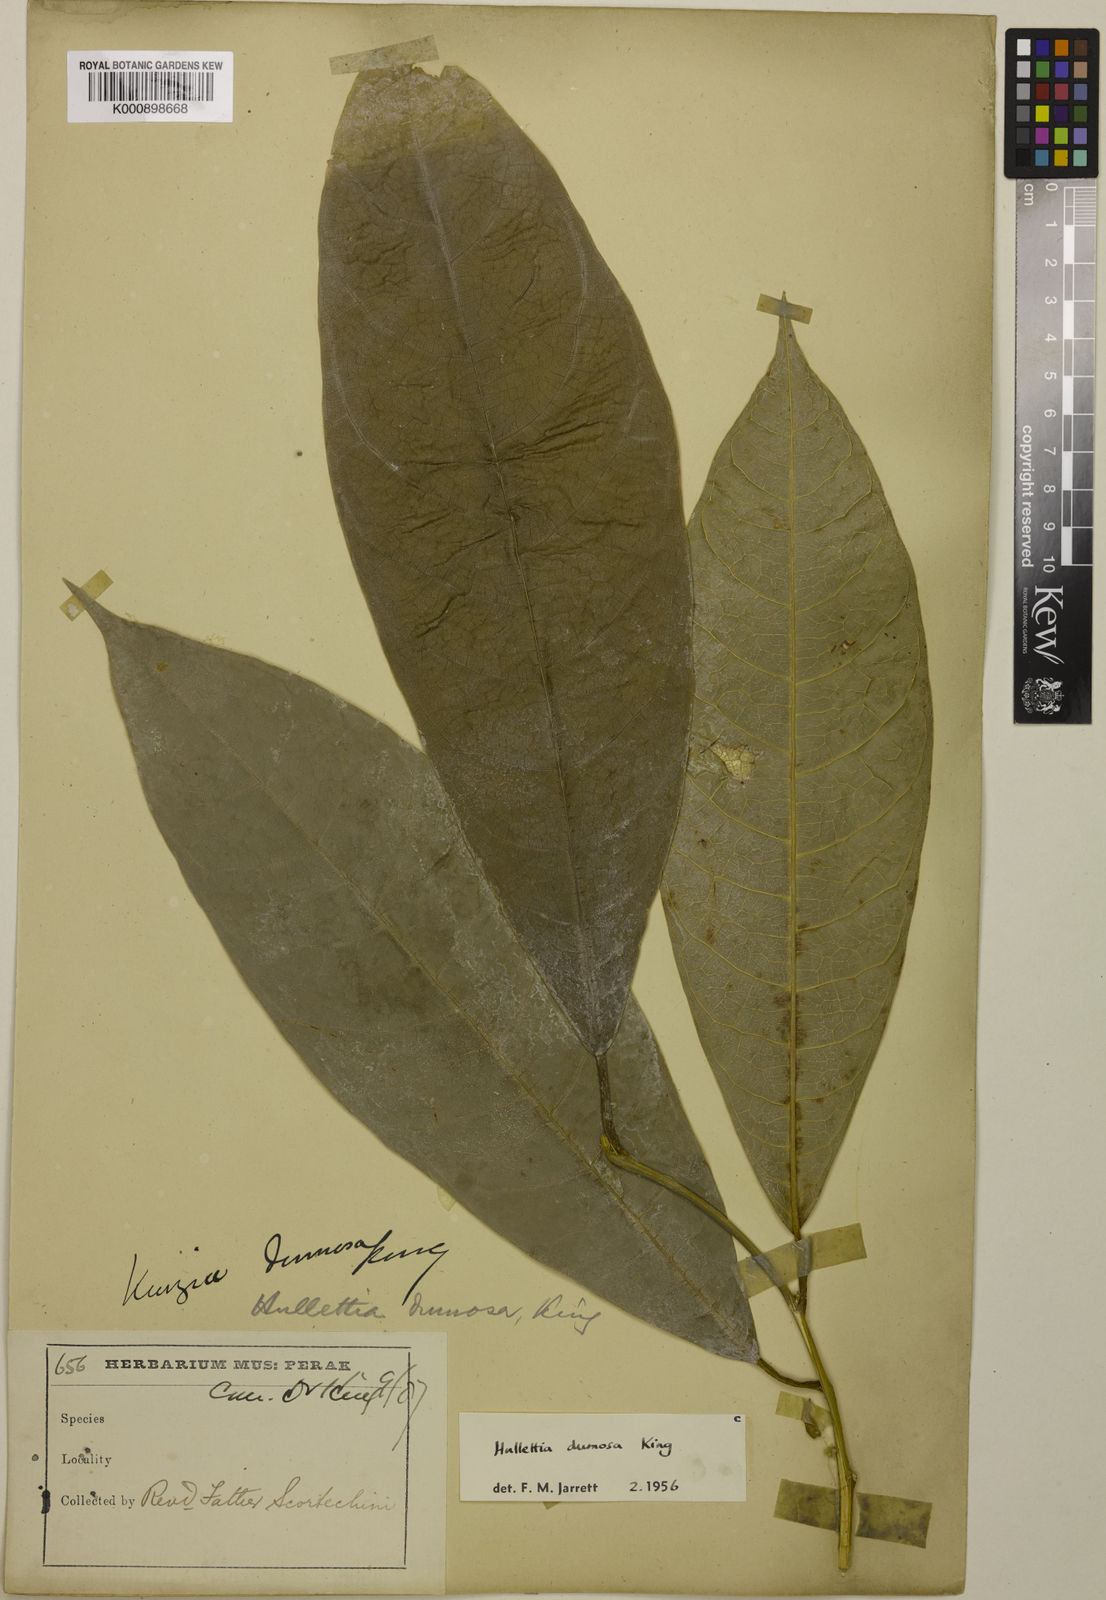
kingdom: Plantae
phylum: Tracheophyta
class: Magnoliopsida
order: Rosales
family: Moraceae
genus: Hullettia
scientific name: Hullettia
